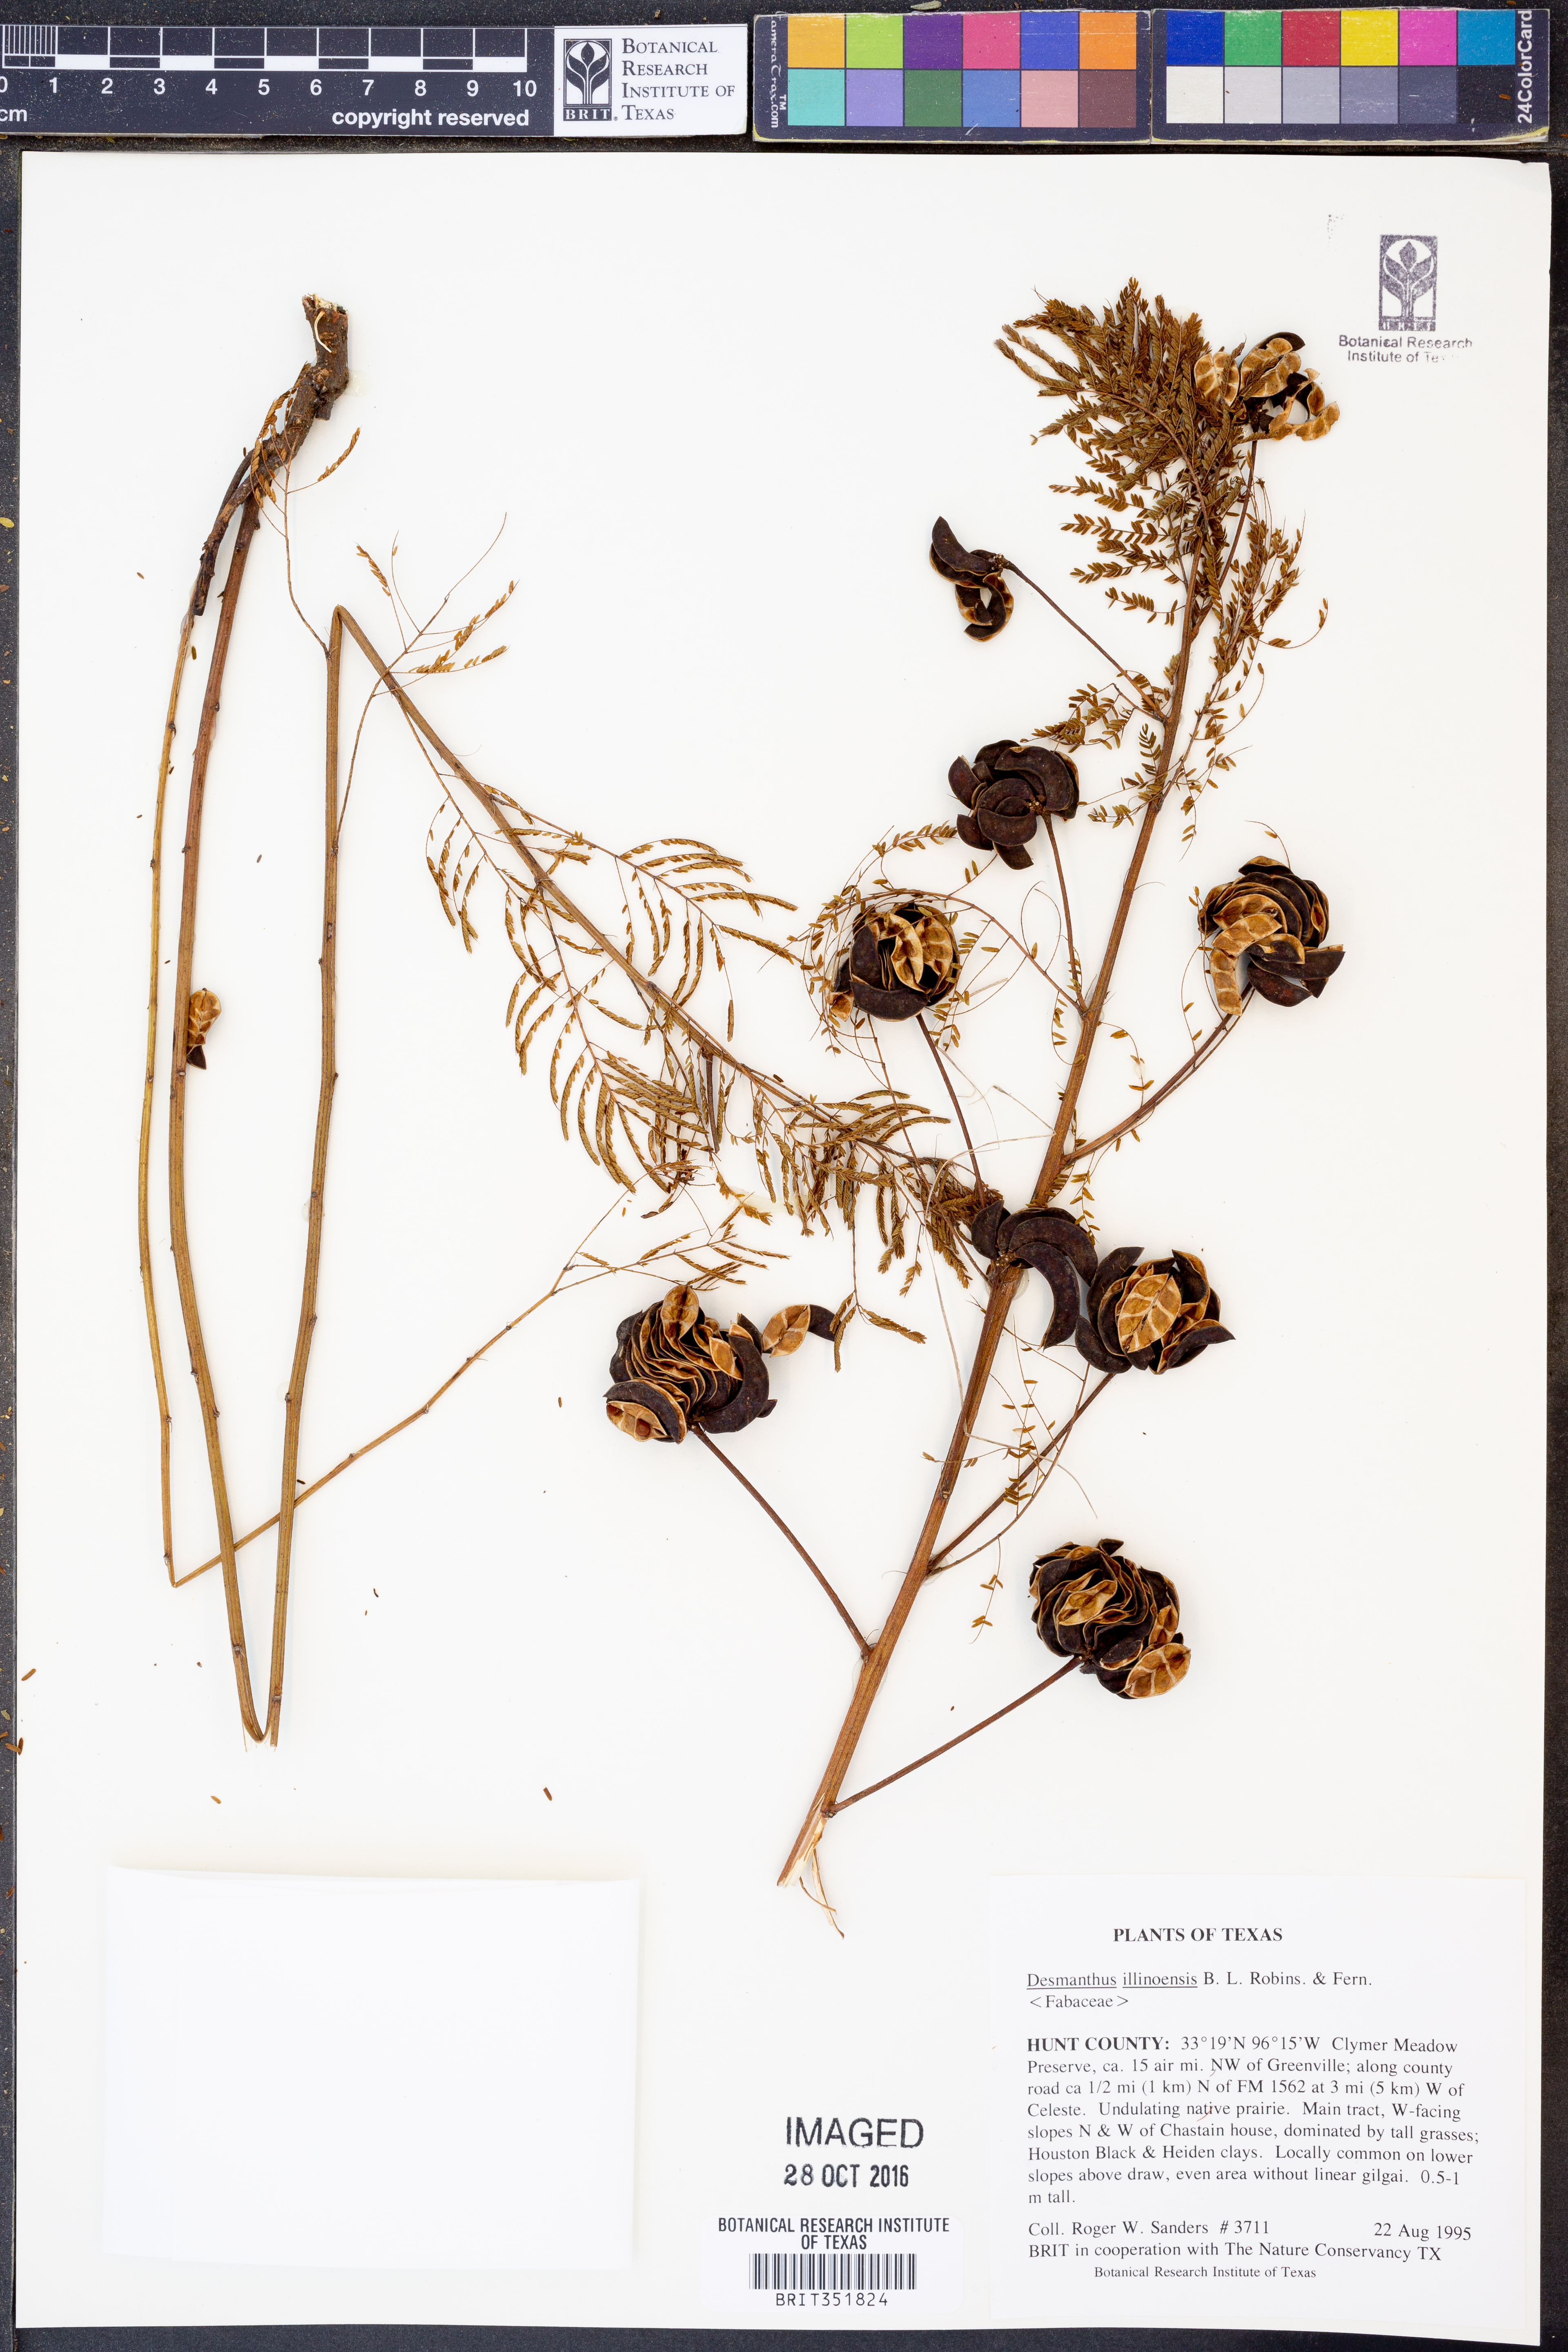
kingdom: Plantae
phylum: Tracheophyta
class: Magnoliopsida
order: Fabales
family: Fabaceae
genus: Desmanthus
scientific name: Desmanthus illinoensis
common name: Illinois bundle-flower
